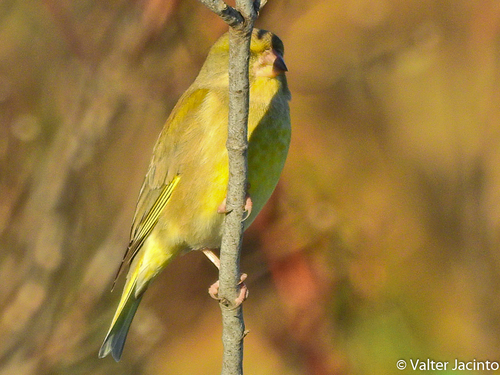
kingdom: Plantae
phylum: Tracheophyta
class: Liliopsida
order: Poales
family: Poaceae
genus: Chloris
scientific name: Chloris chloris
